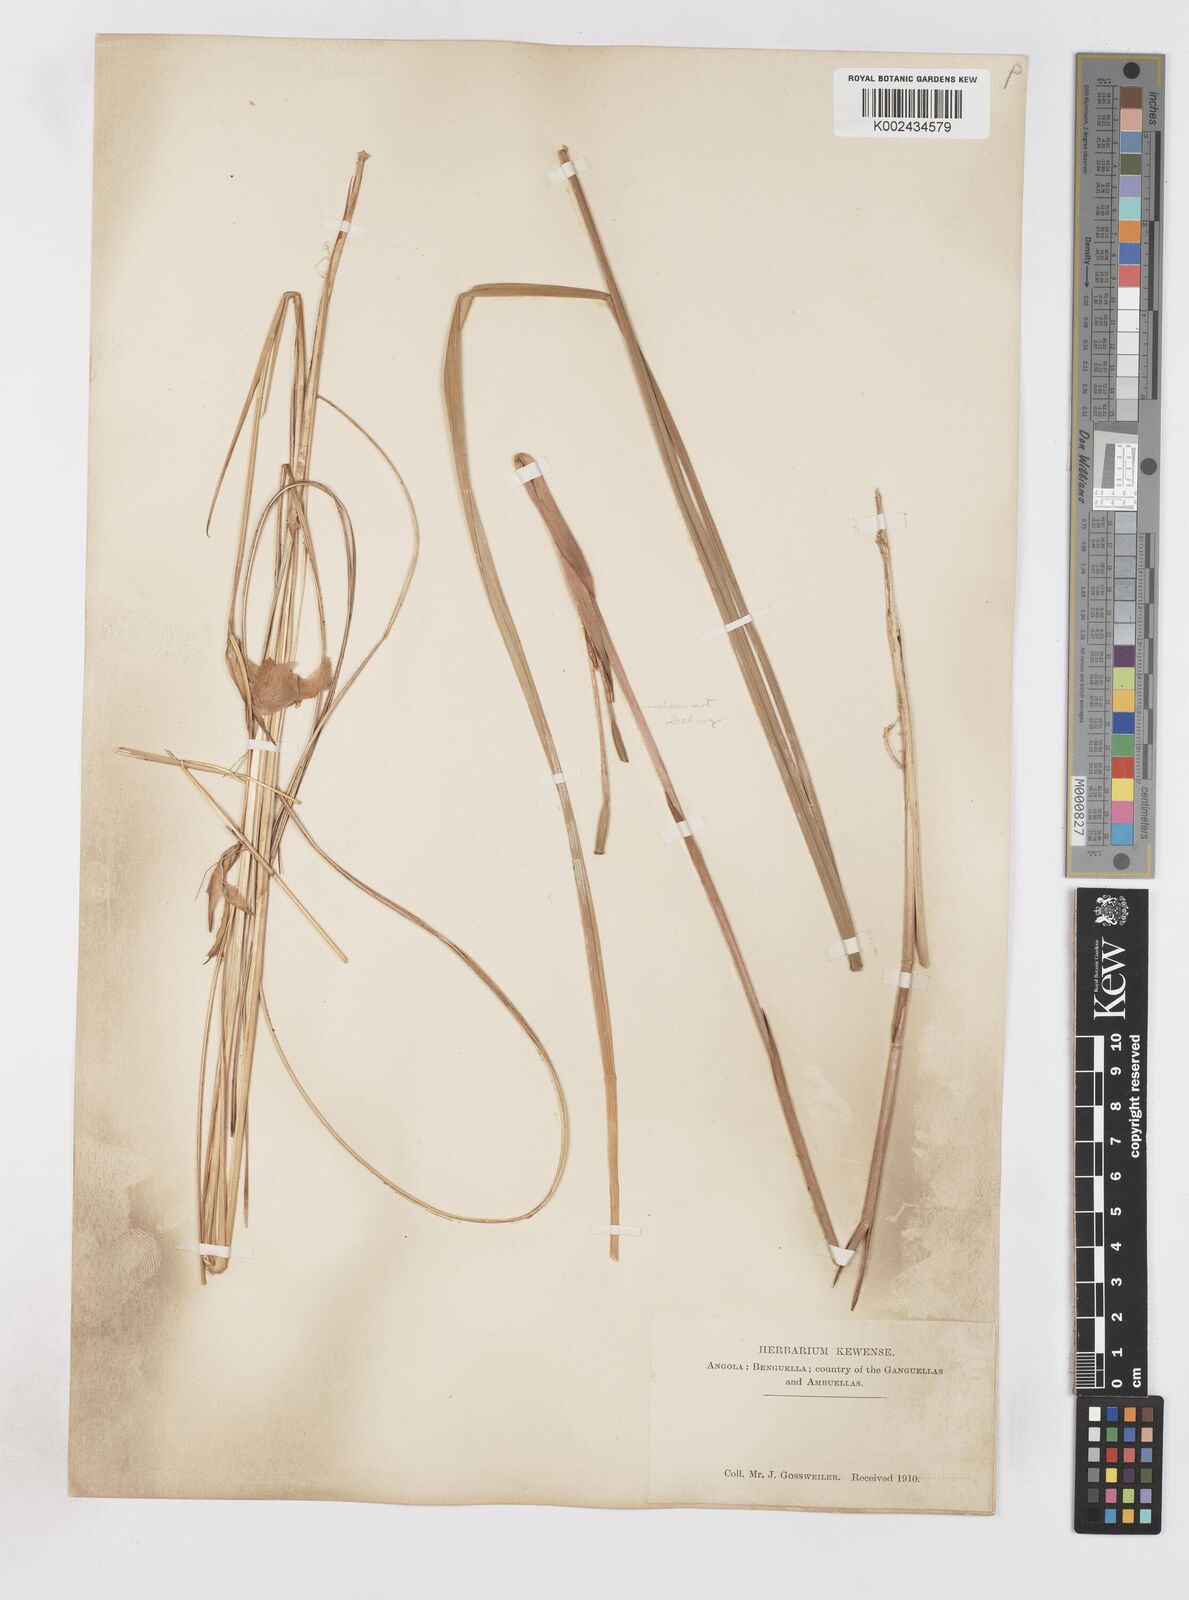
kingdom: Plantae
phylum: Tracheophyta
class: Liliopsida
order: Asparagales
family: Iridaceae
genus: Gladiolus
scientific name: Gladiolus
